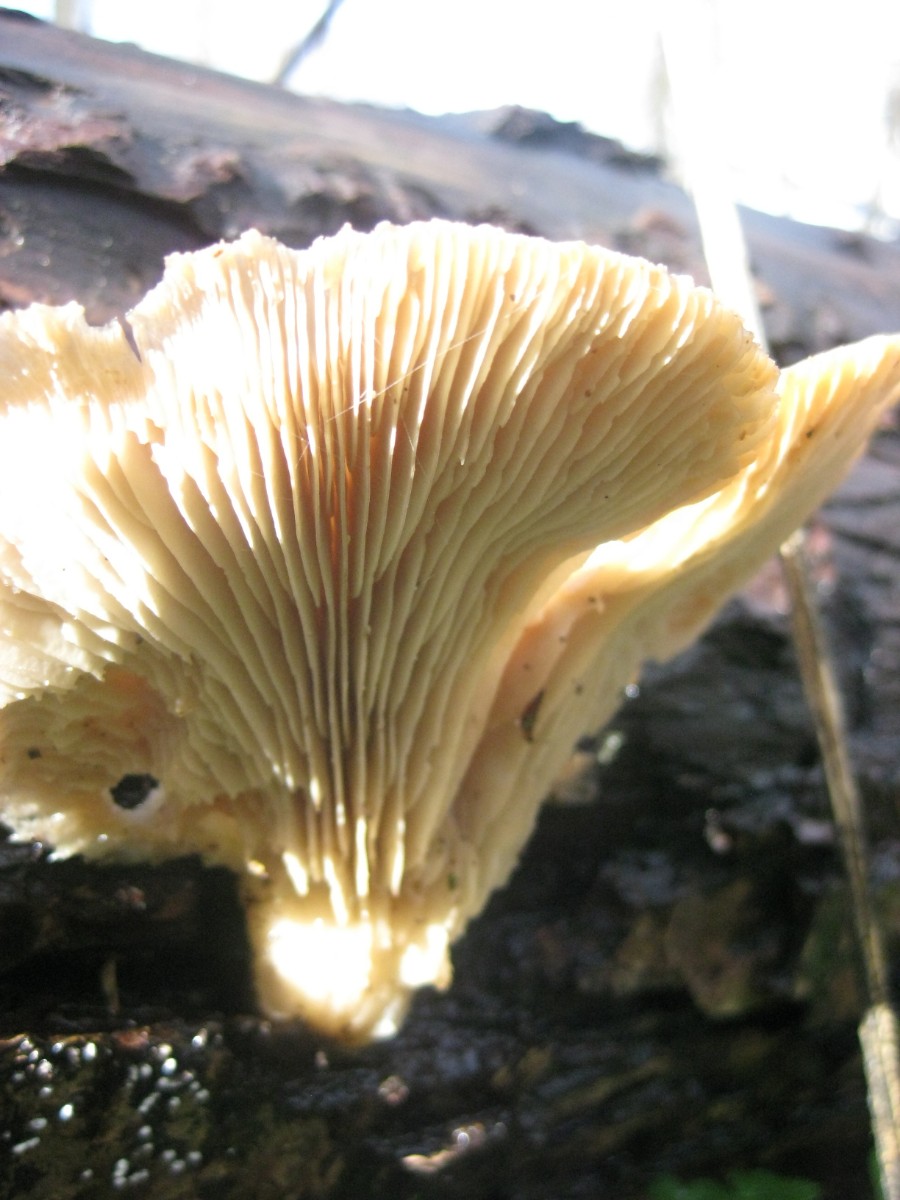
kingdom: Fungi
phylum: Basidiomycota
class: Agaricomycetes
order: Agaricales
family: Pleurotaceae
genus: Pleurotus
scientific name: Pleurotus ostreatus
